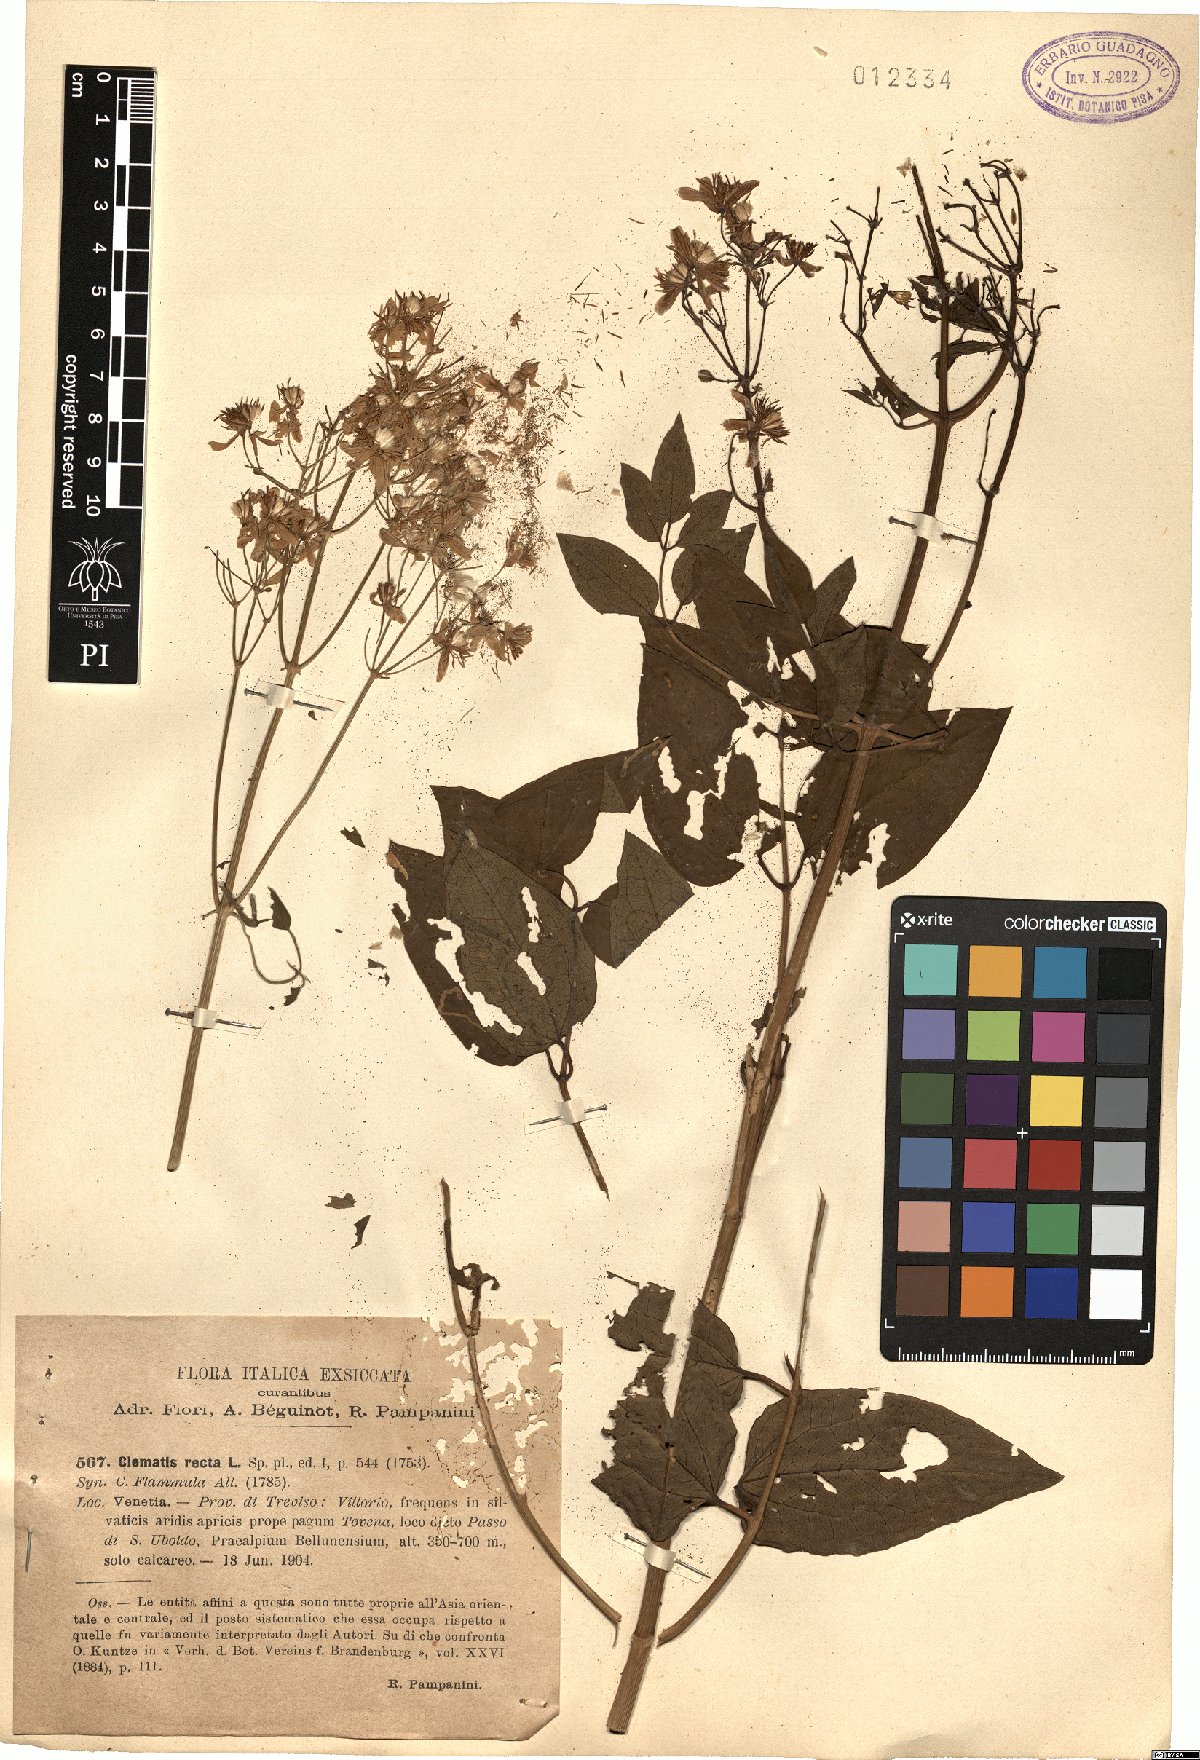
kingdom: Plantae
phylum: Tracheophyta
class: Magnoliopsida
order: Ranunculales
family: Ranunculaceae
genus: Clematis
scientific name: Clematis recta
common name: Ground clematis
